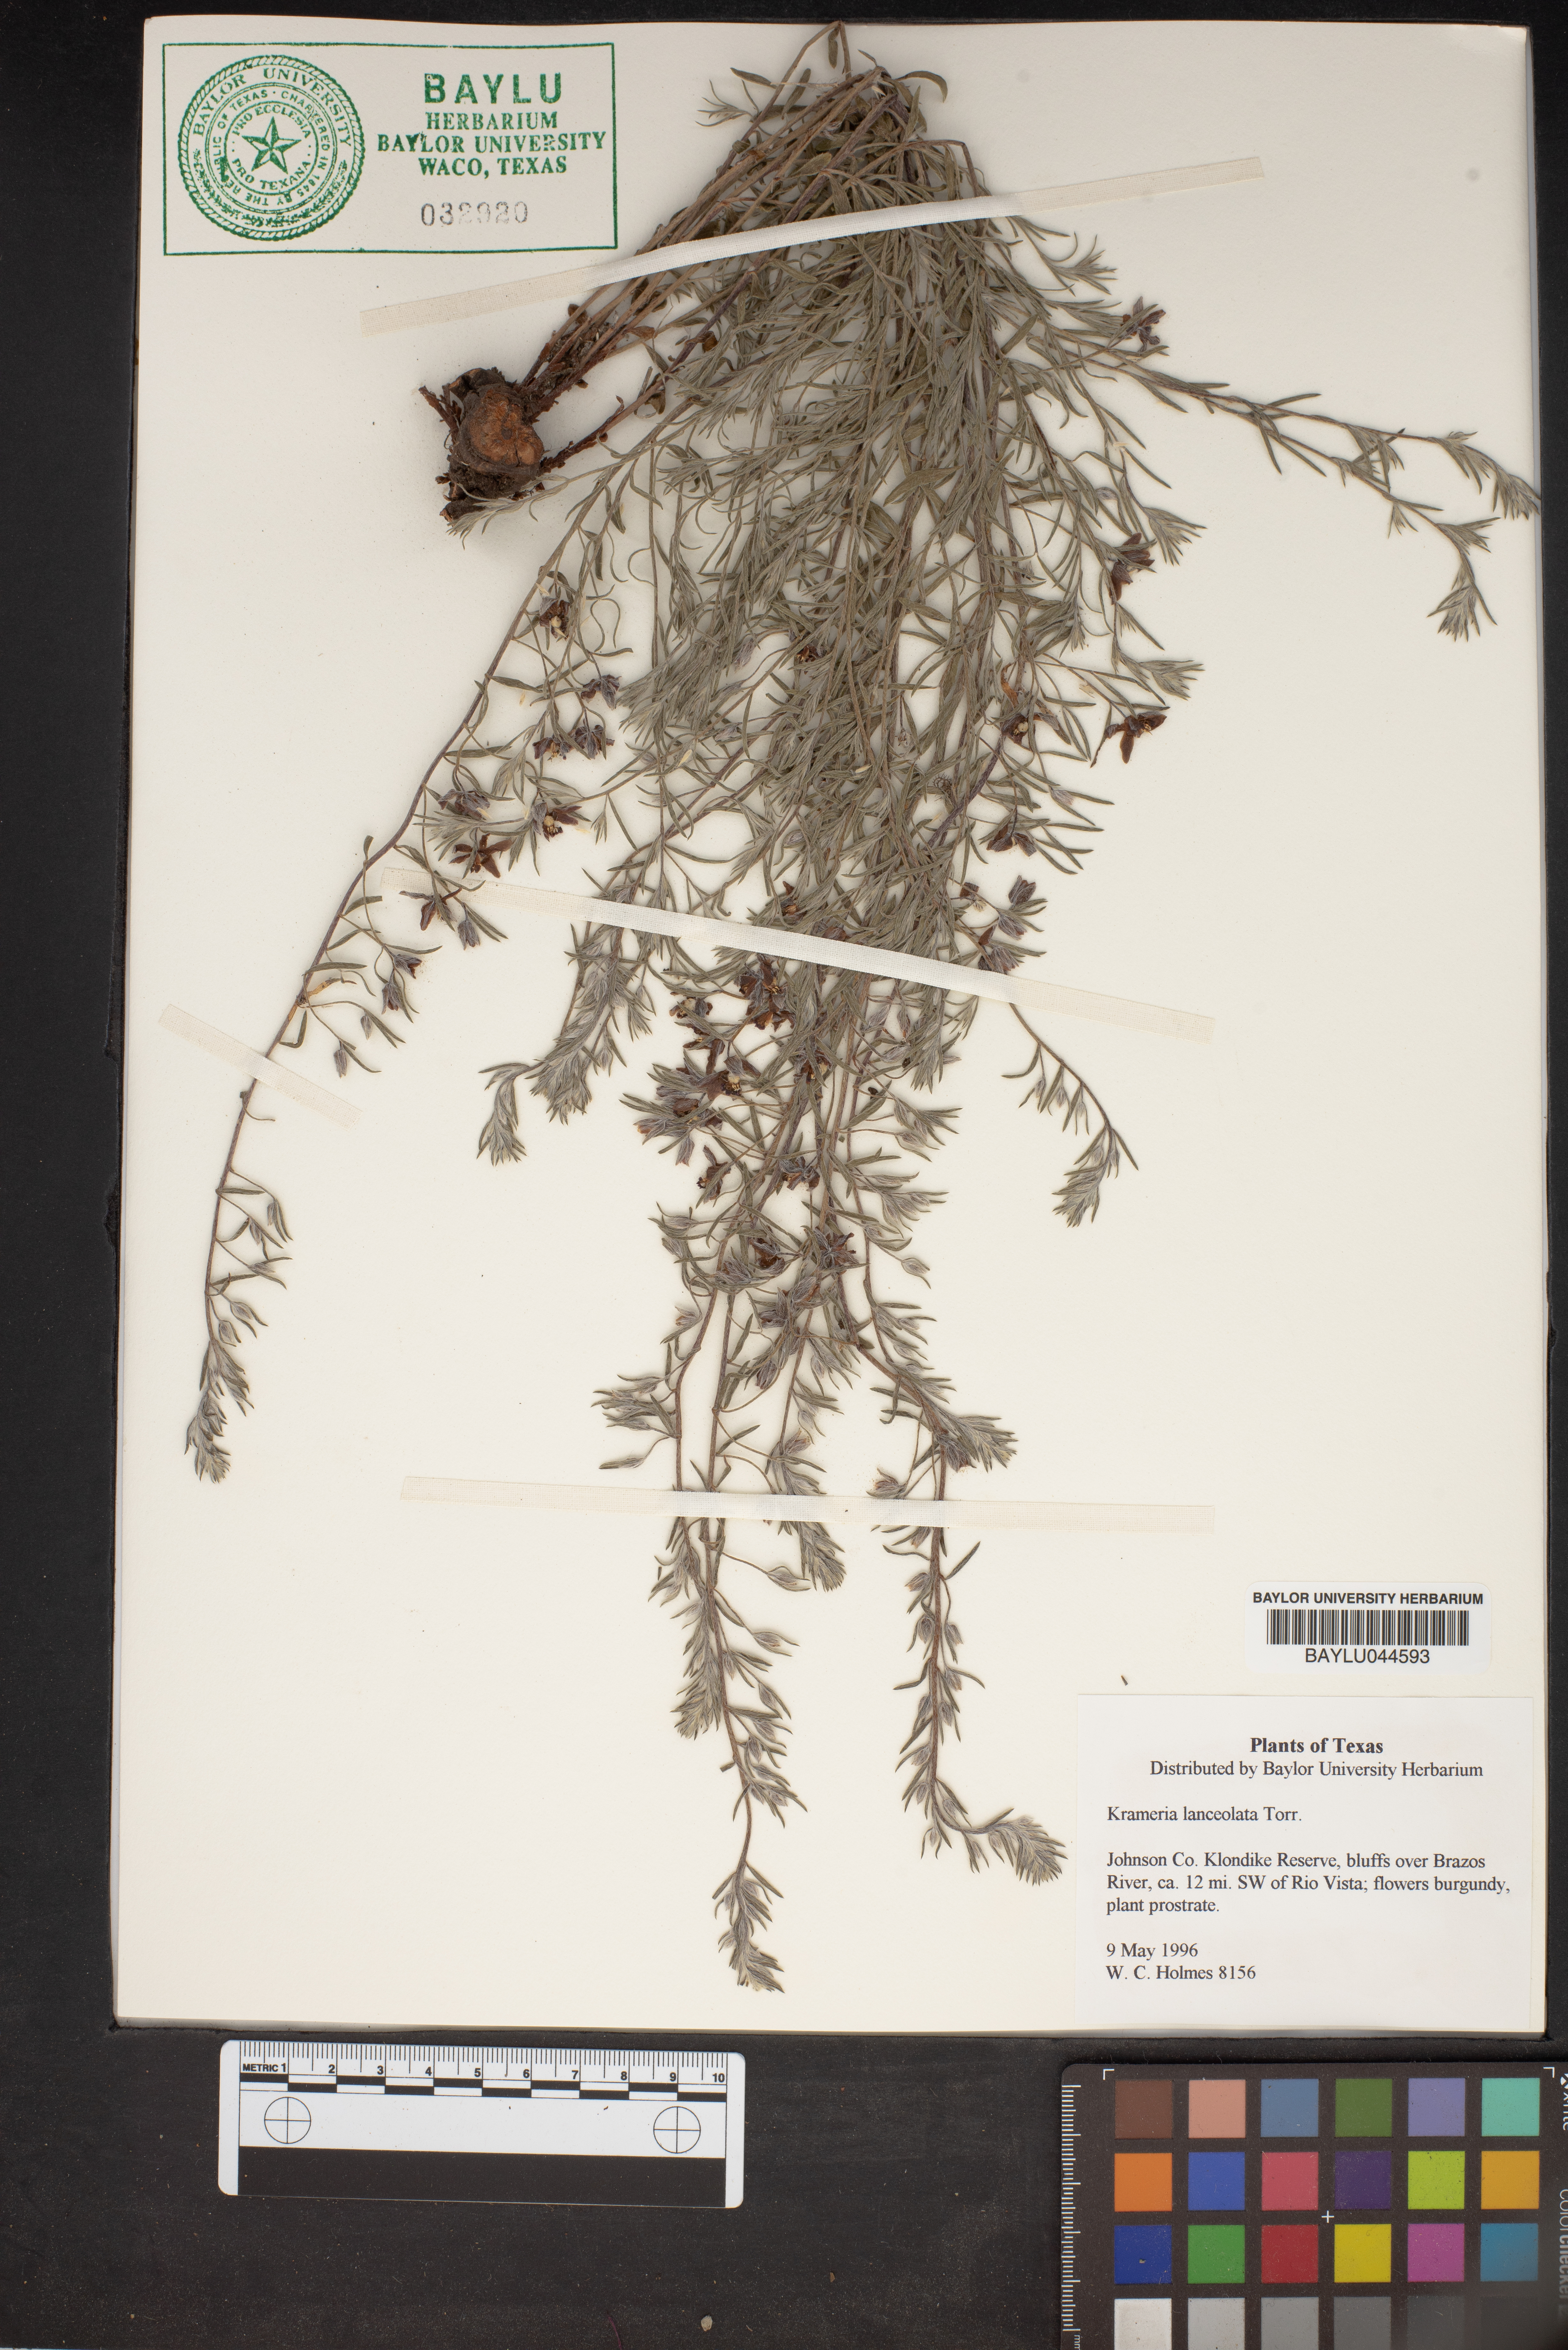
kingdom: Plantae
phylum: Tracheophyta
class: Magnoliopsida
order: Zygophyllales
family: Krameriaceae
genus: Krameria
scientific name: Krameria lanceolata
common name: Ratany
